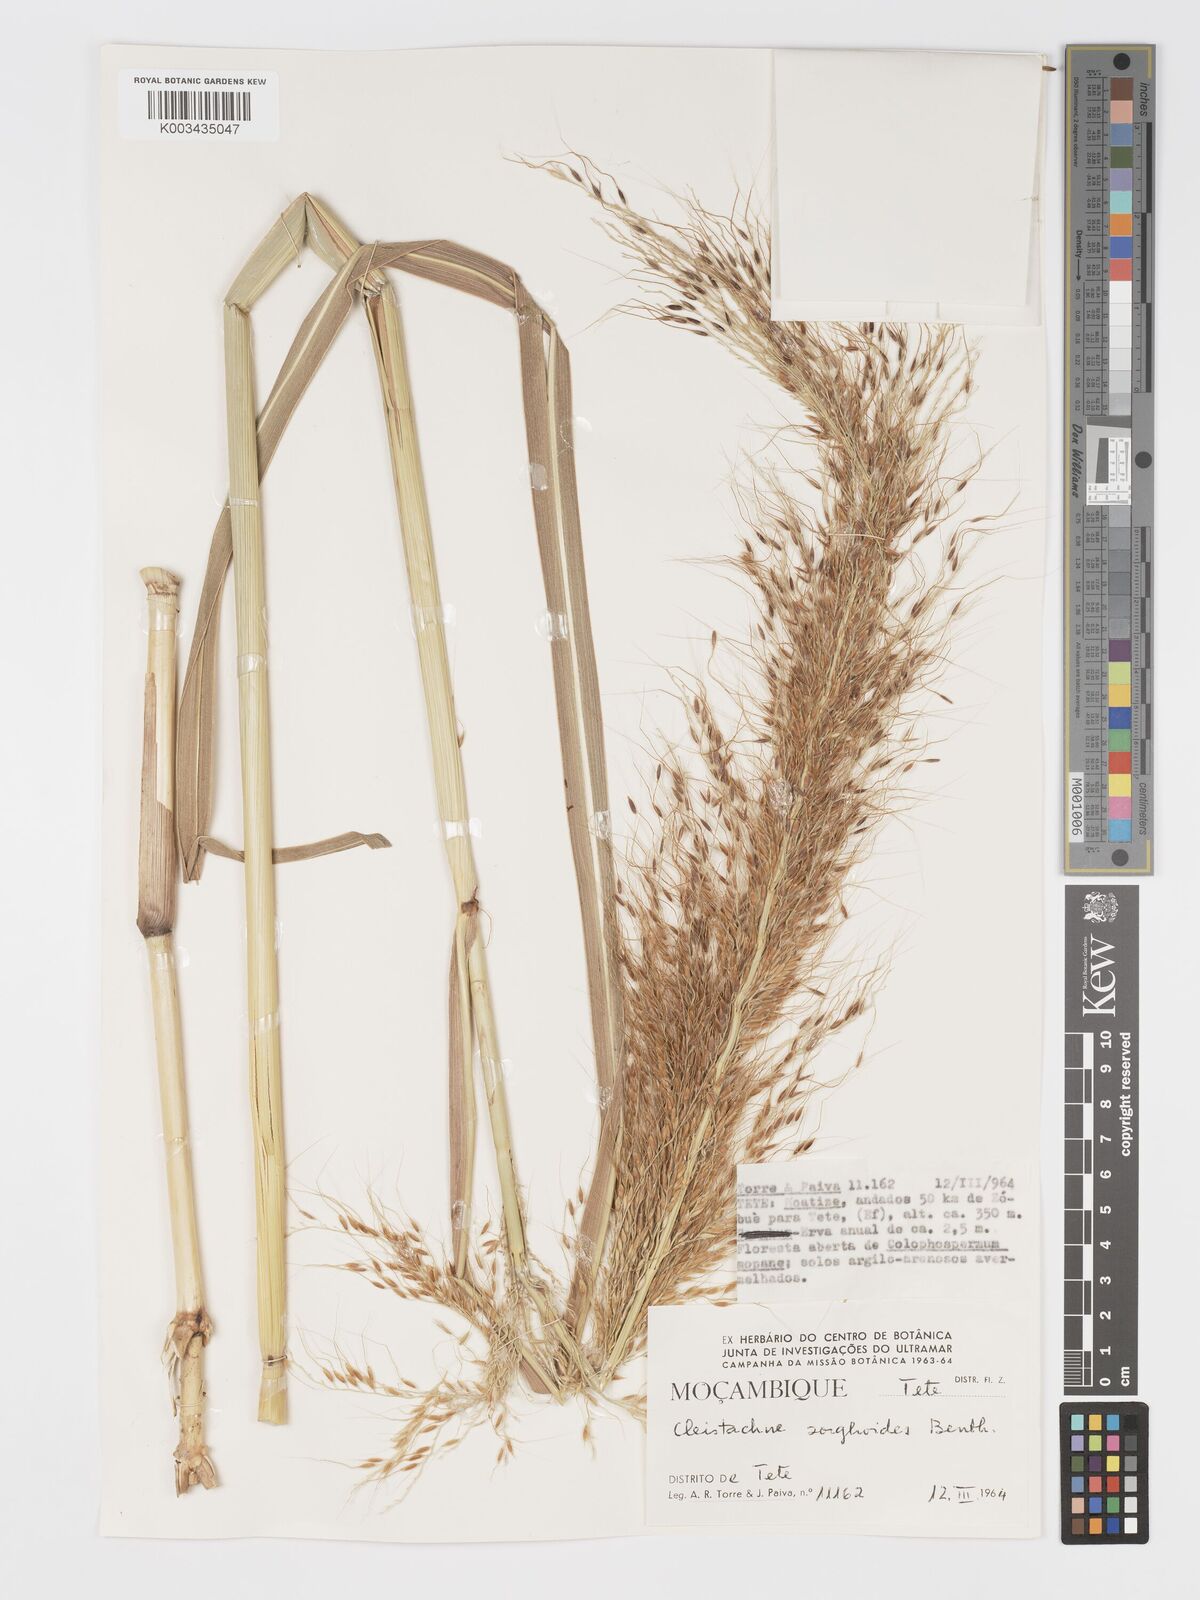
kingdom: Plantae
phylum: Tracheophyta
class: Liliopsida
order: Poales
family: Poaceae
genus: Cleistachne
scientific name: Cleistachne sorghoides
